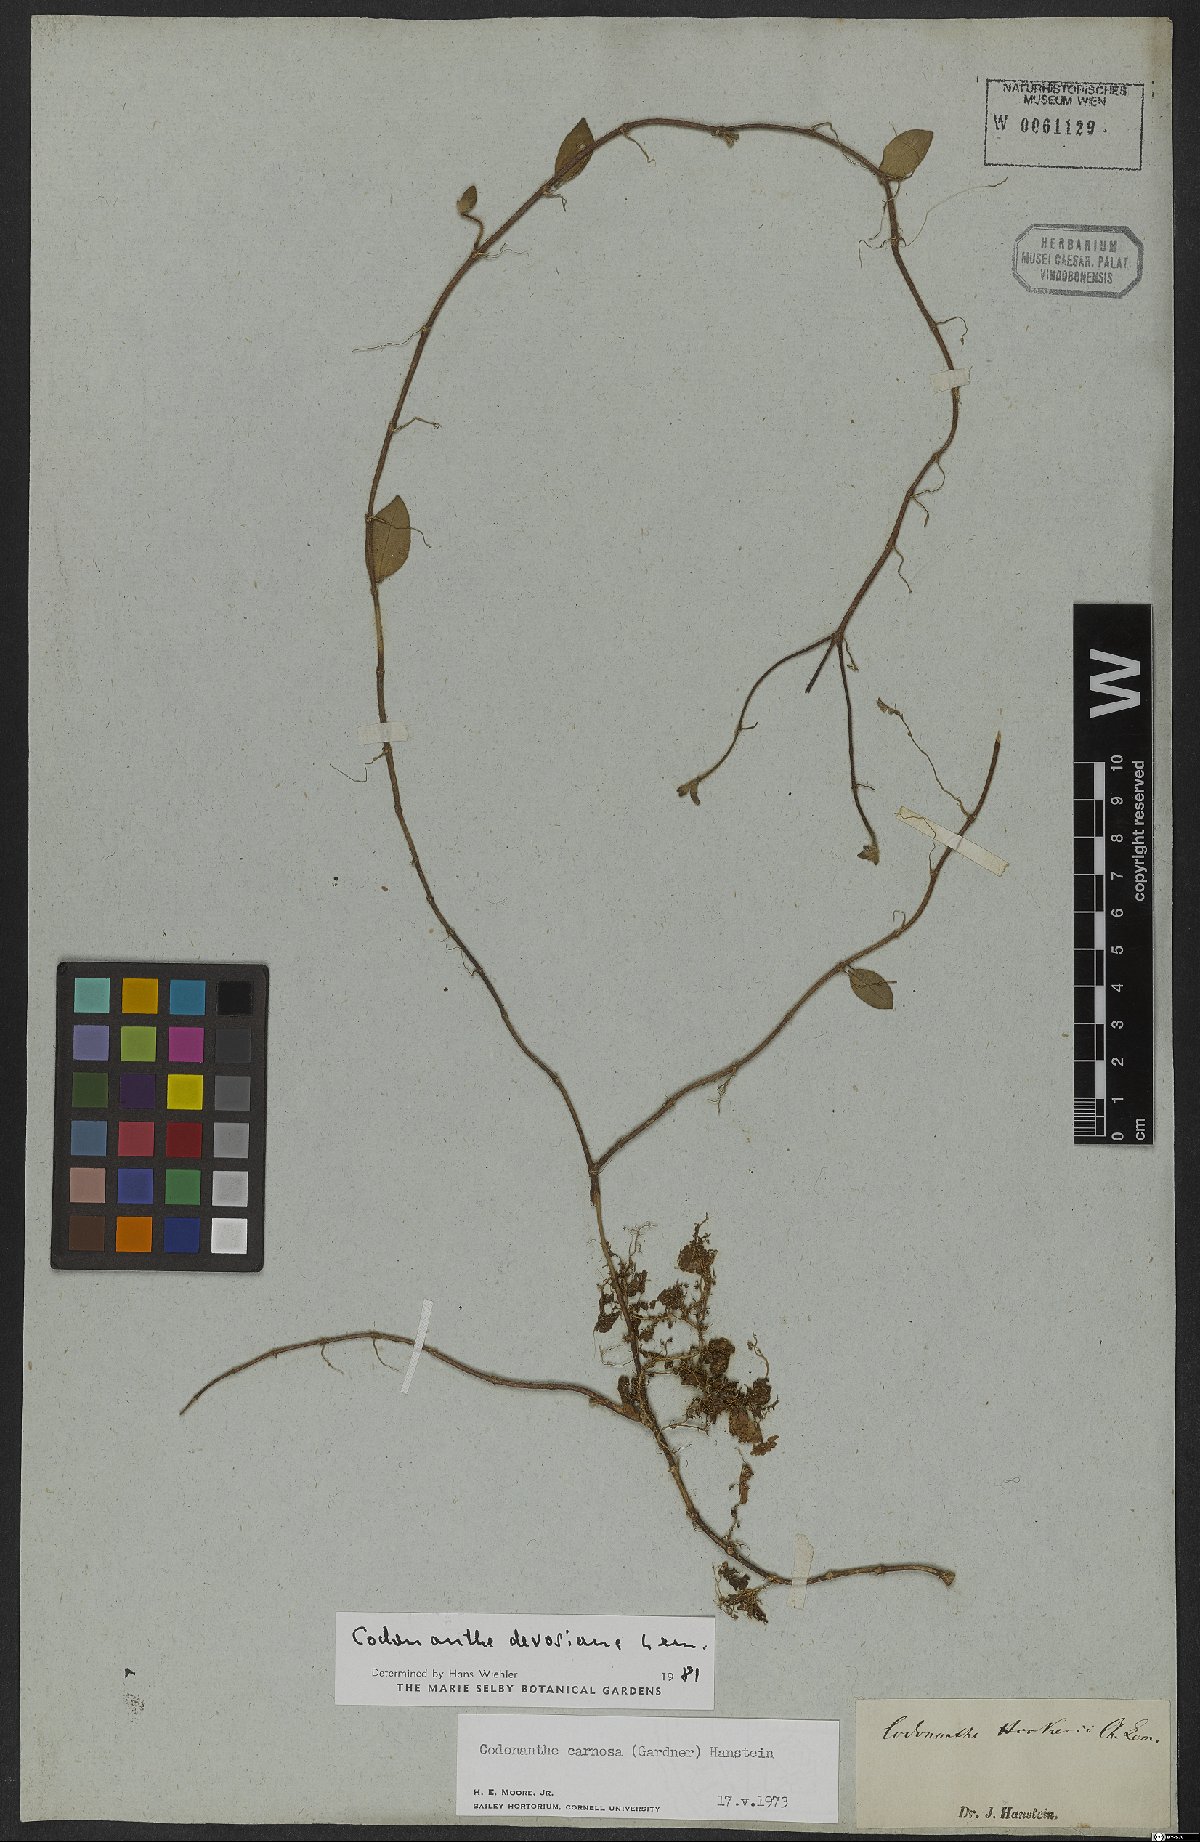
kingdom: Plantae
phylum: Tracheophyta
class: Magnoliopsida
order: Lamiales
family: Gesneriaceae
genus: Codonanthe
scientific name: Codonanthe devosiana
